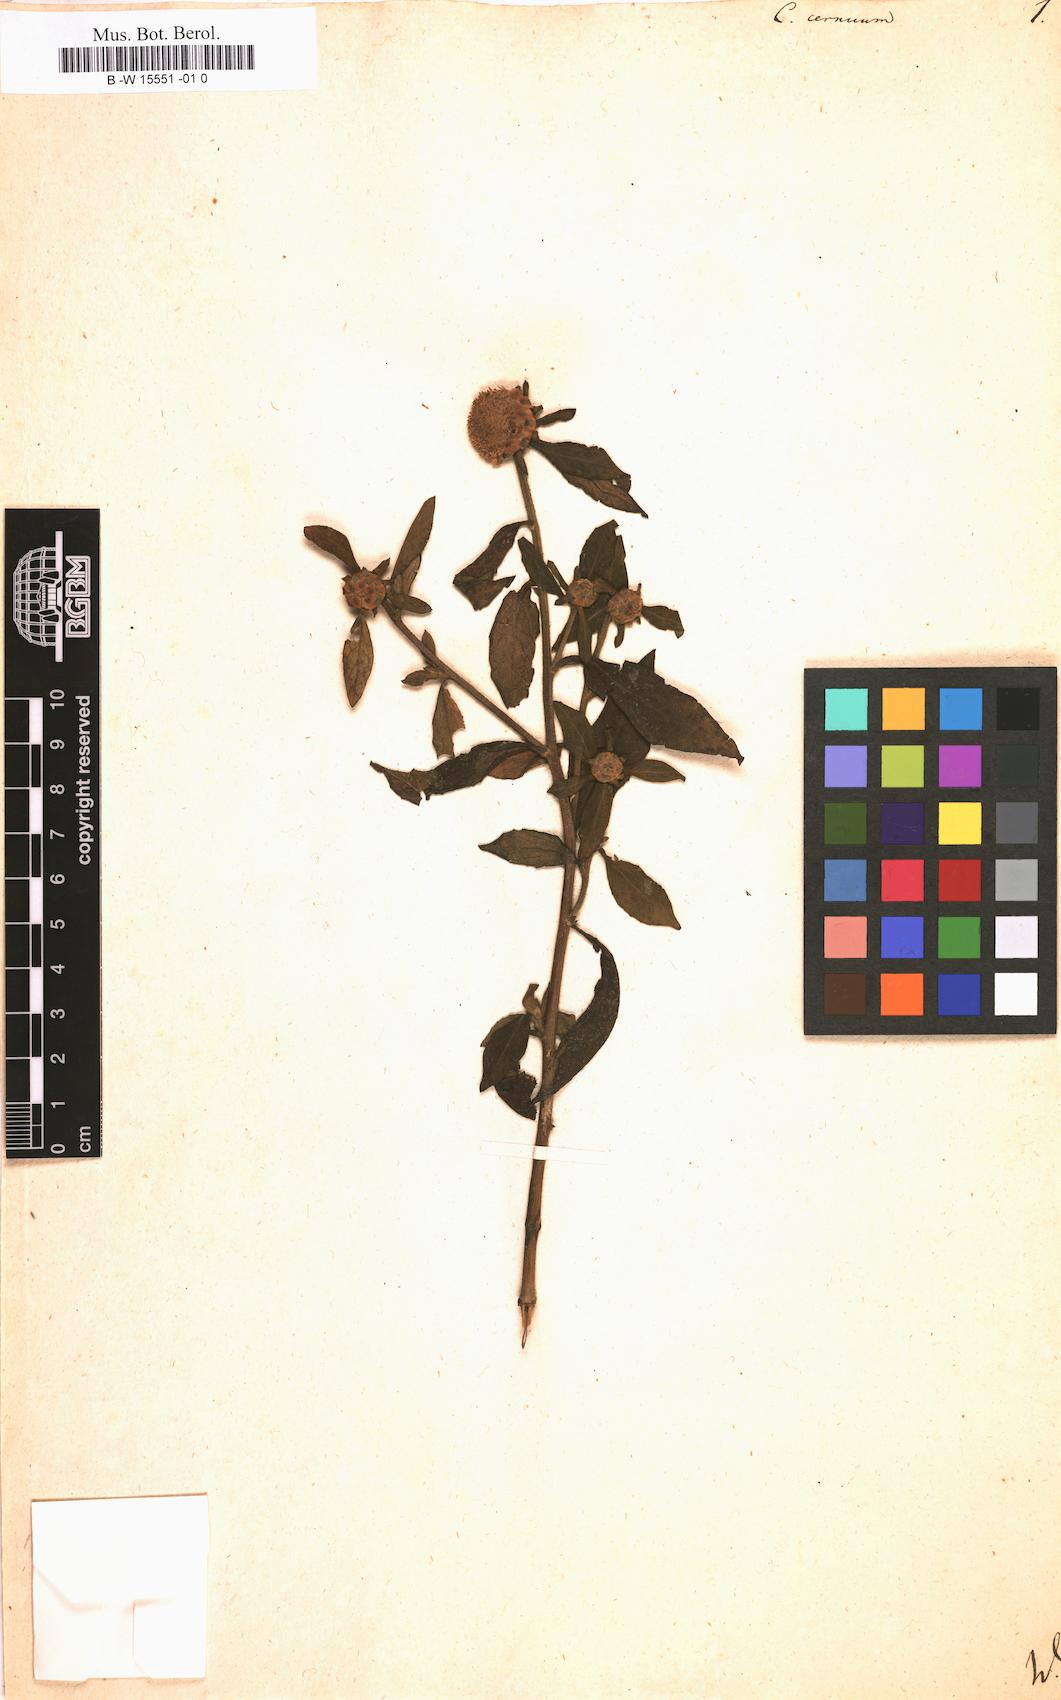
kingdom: Plantae
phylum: Tracheophyta
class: Magnoliopsida
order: Asterales
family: Asteraceae
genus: Carpesium
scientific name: Carpesium cernuum
